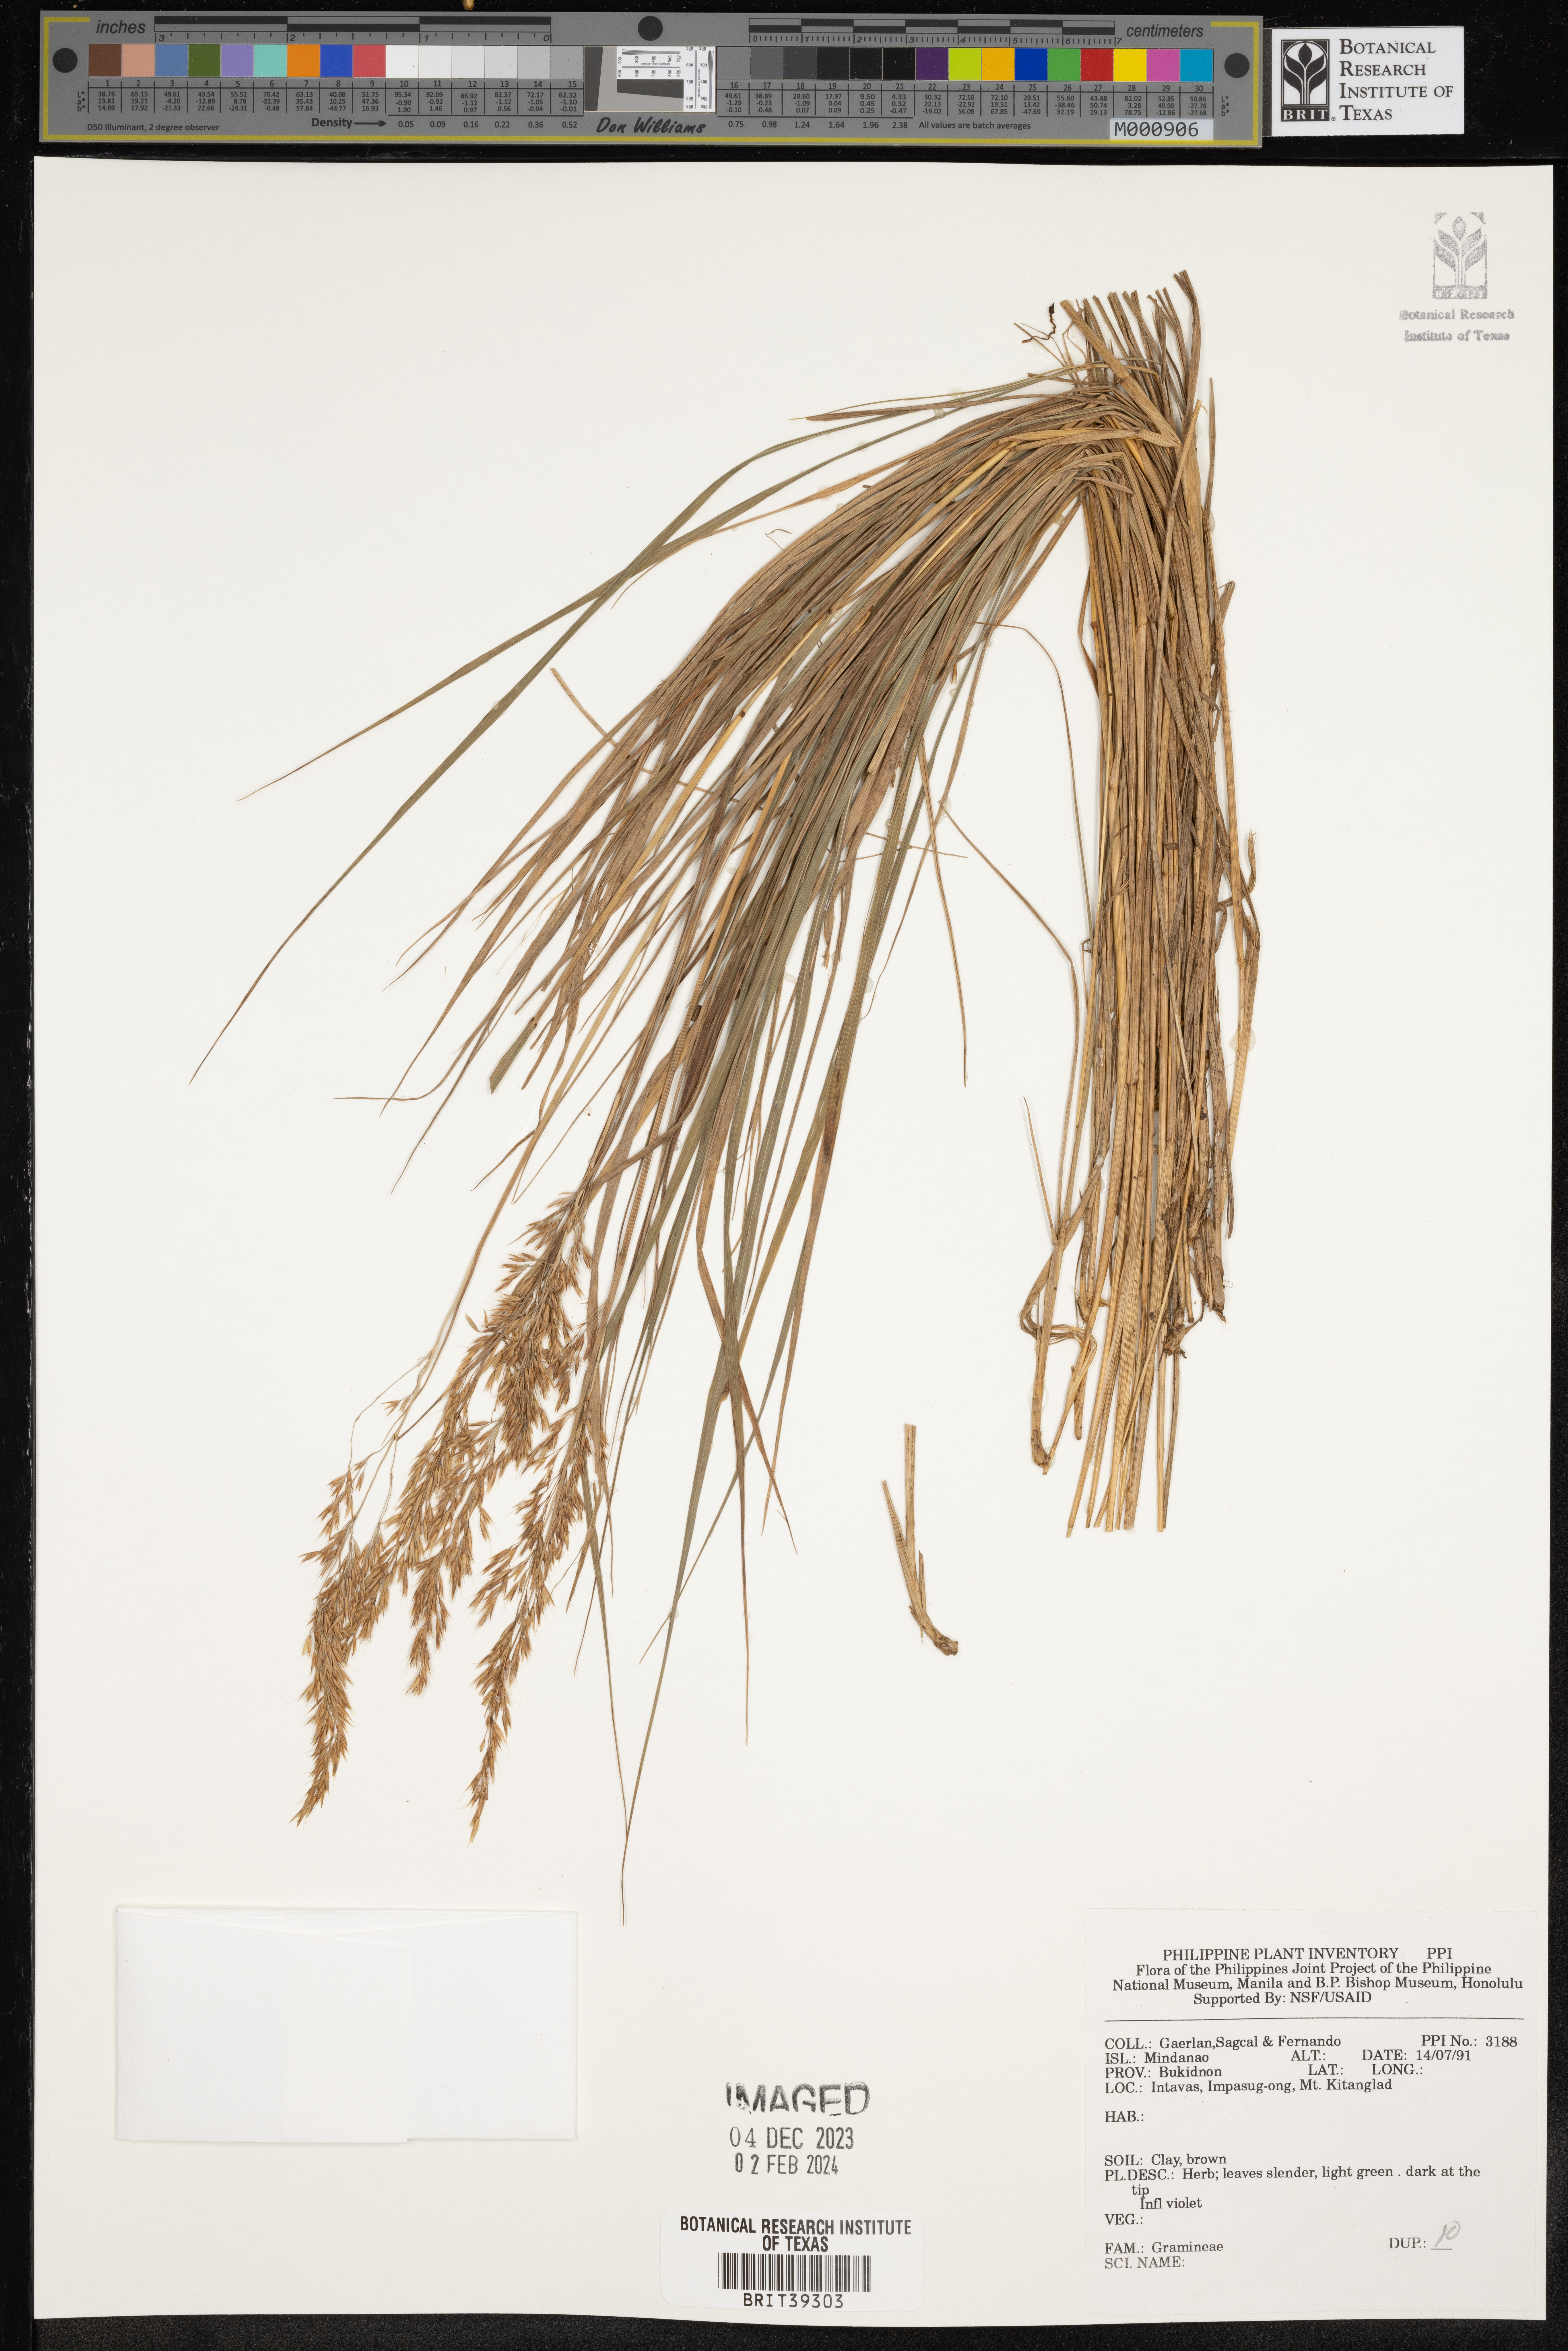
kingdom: Plantae
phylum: Tracheophyta
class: Liliopsida
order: Poales
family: Poaceae
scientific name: Poaceae
